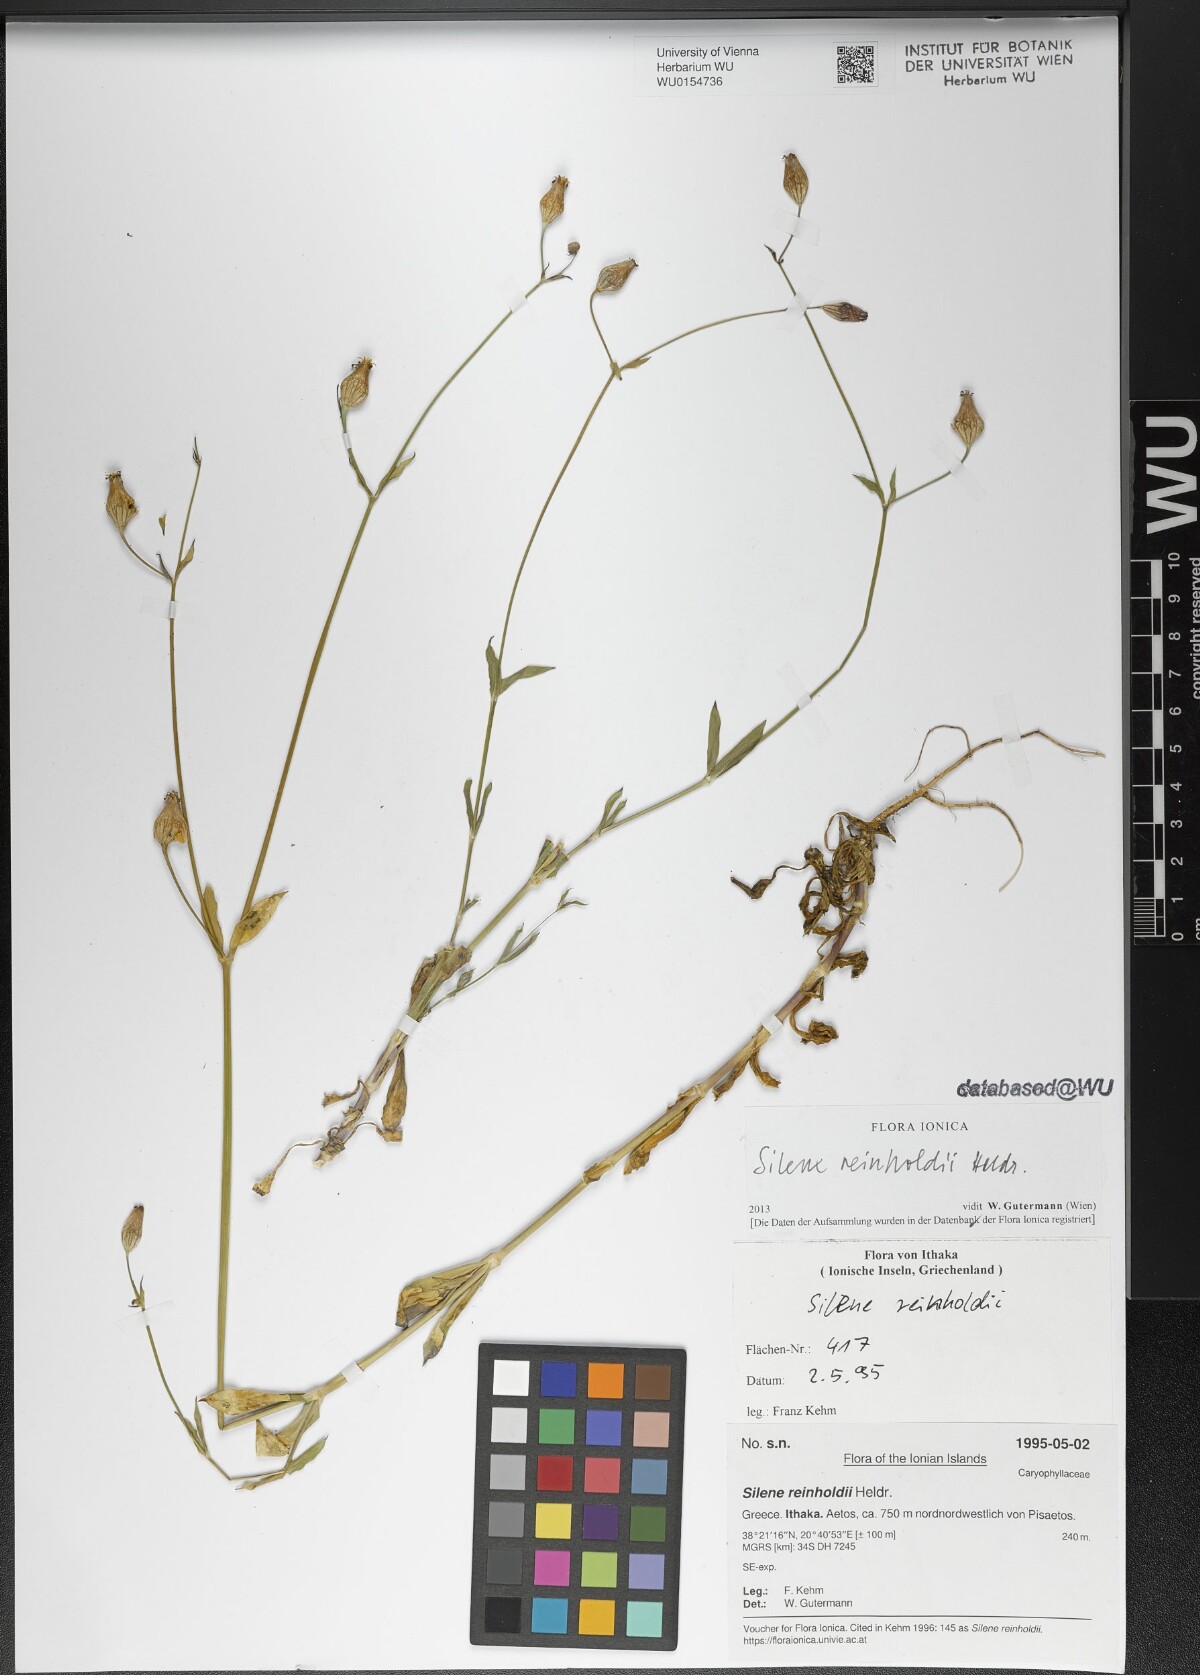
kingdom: Plantae
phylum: Tracheophyta
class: Magnoliopsida
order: Caryophyllales
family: Caryophyllaceae
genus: Silene
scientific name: Silene reinholdii
